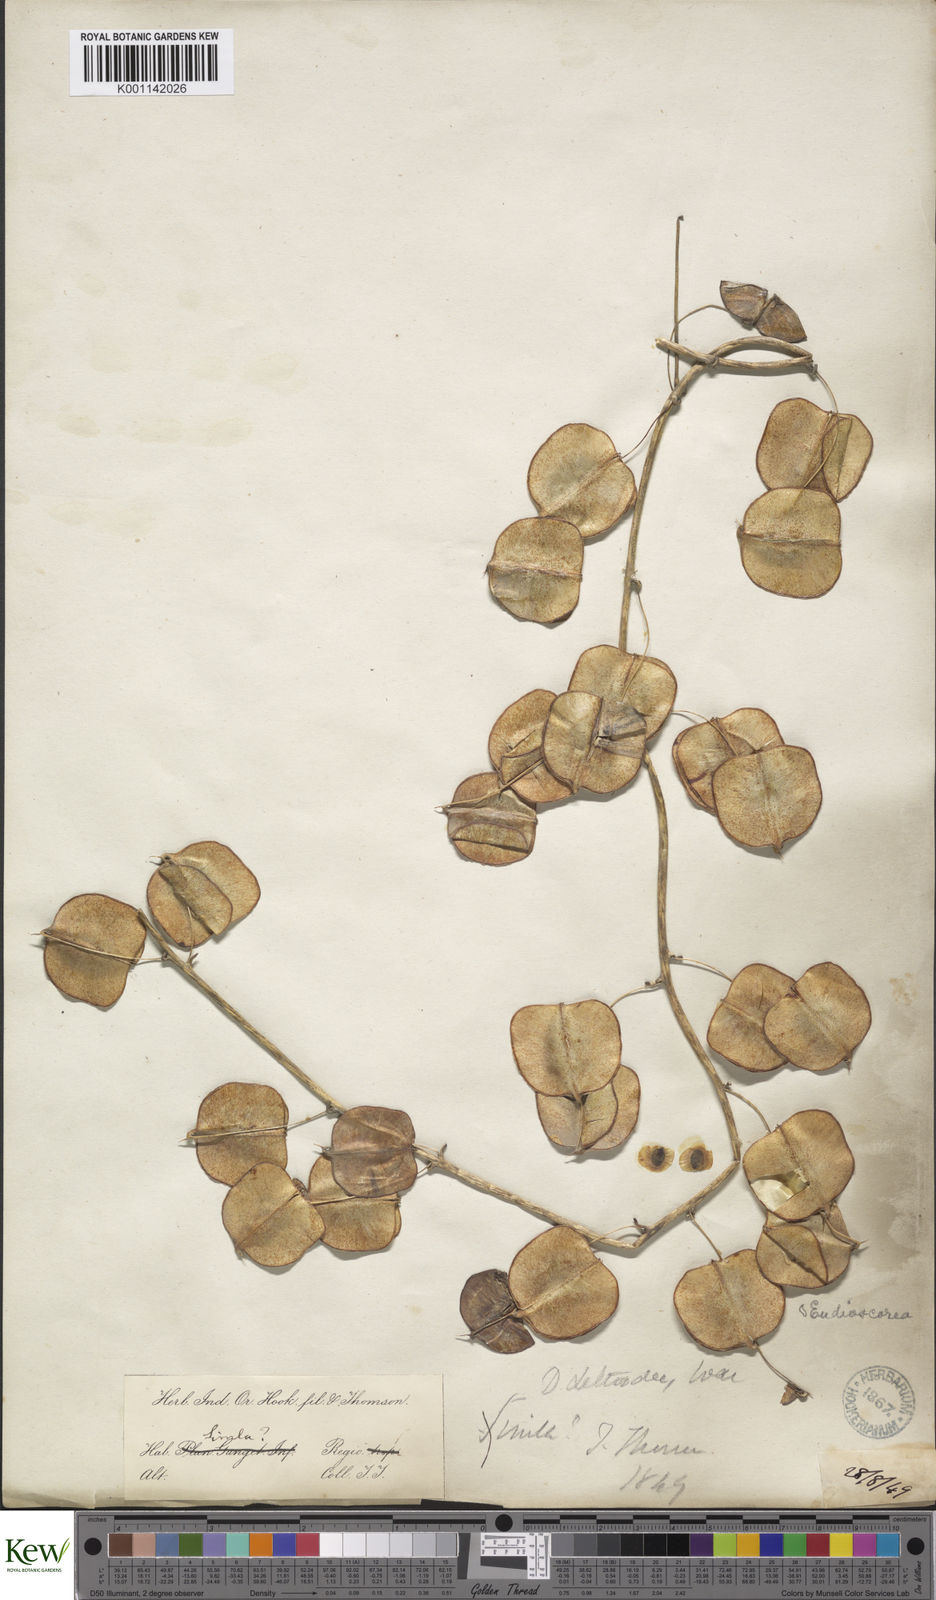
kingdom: Plantae
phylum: Tracheophyta
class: Liliopsida
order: Dioscoreales
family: Dioscoreaceae
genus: Dioscorea
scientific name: Dioscorea deltoidea
